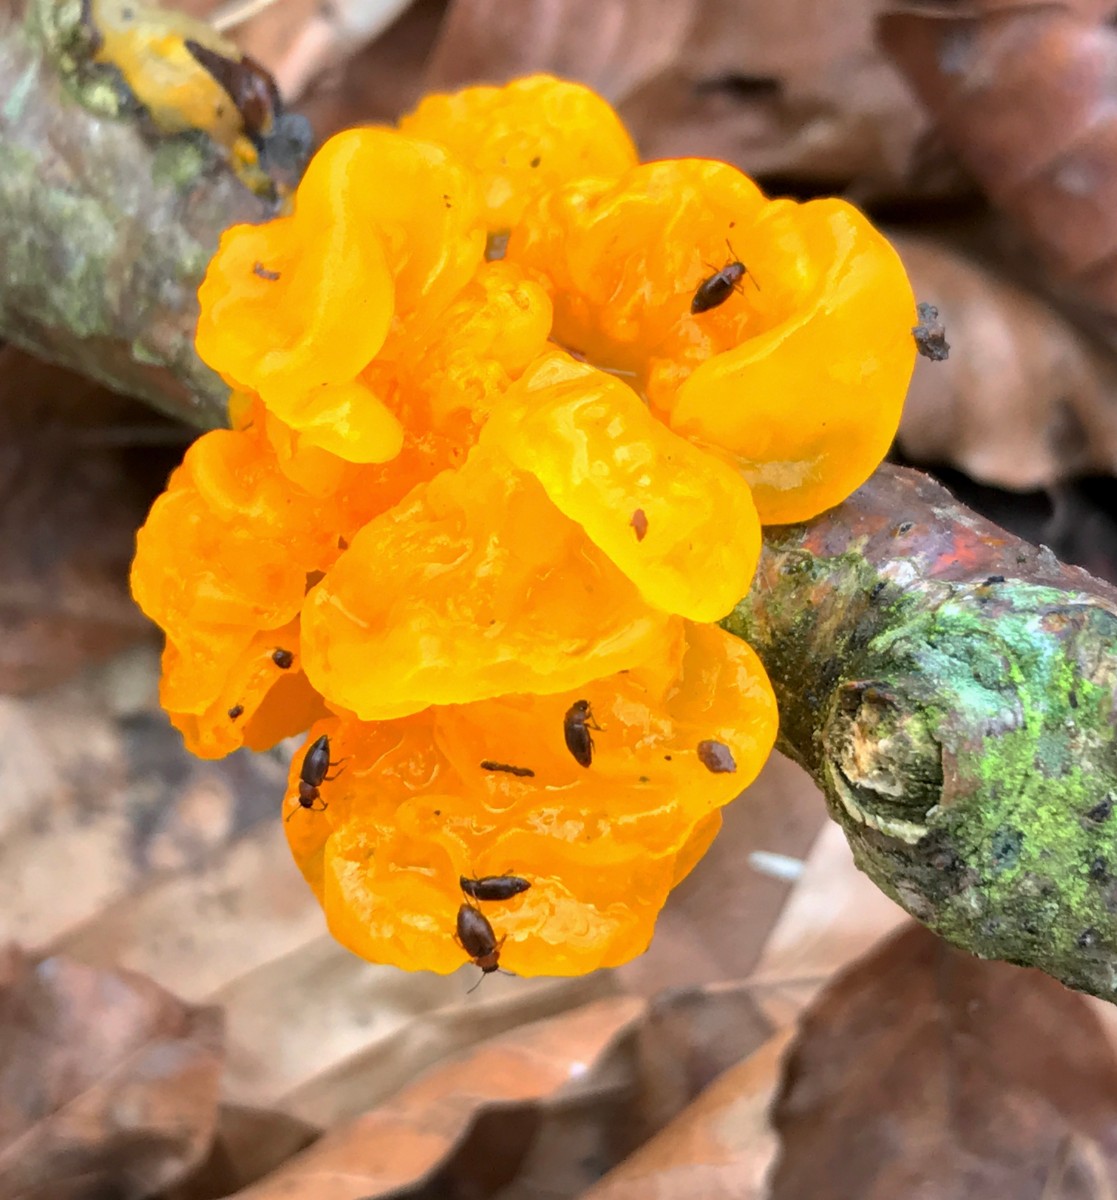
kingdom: Fungi
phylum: Basidiomycota
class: Tremellomycetes
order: Tremellales
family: Tremellaceae
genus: Tremella
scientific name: Tremella mesenterica
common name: gul bævresvamp
